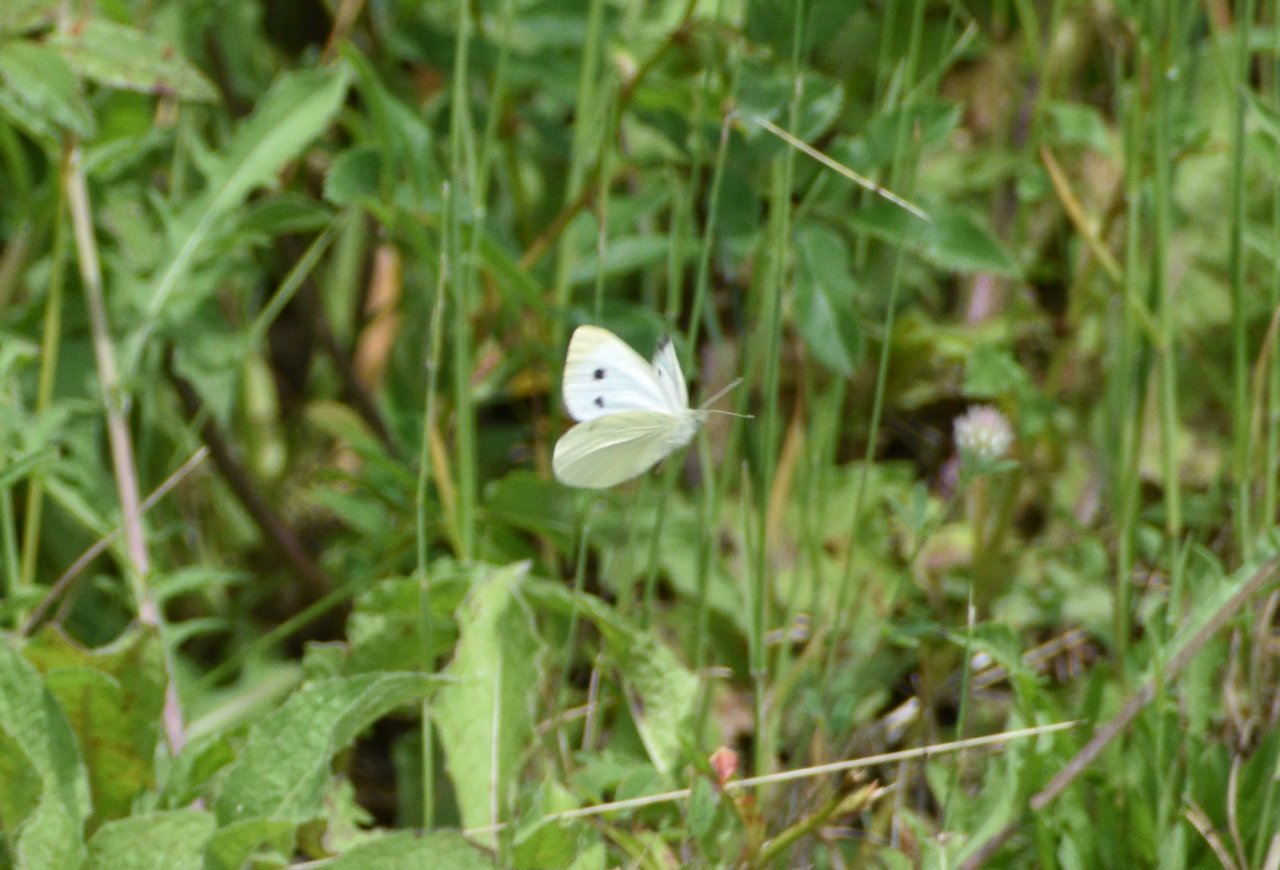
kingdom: Animalia
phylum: Arthropoda
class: Insecta
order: Lepidoptera
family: Pieridae
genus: Pieris
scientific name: Pieris rapae
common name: Cabbage White
